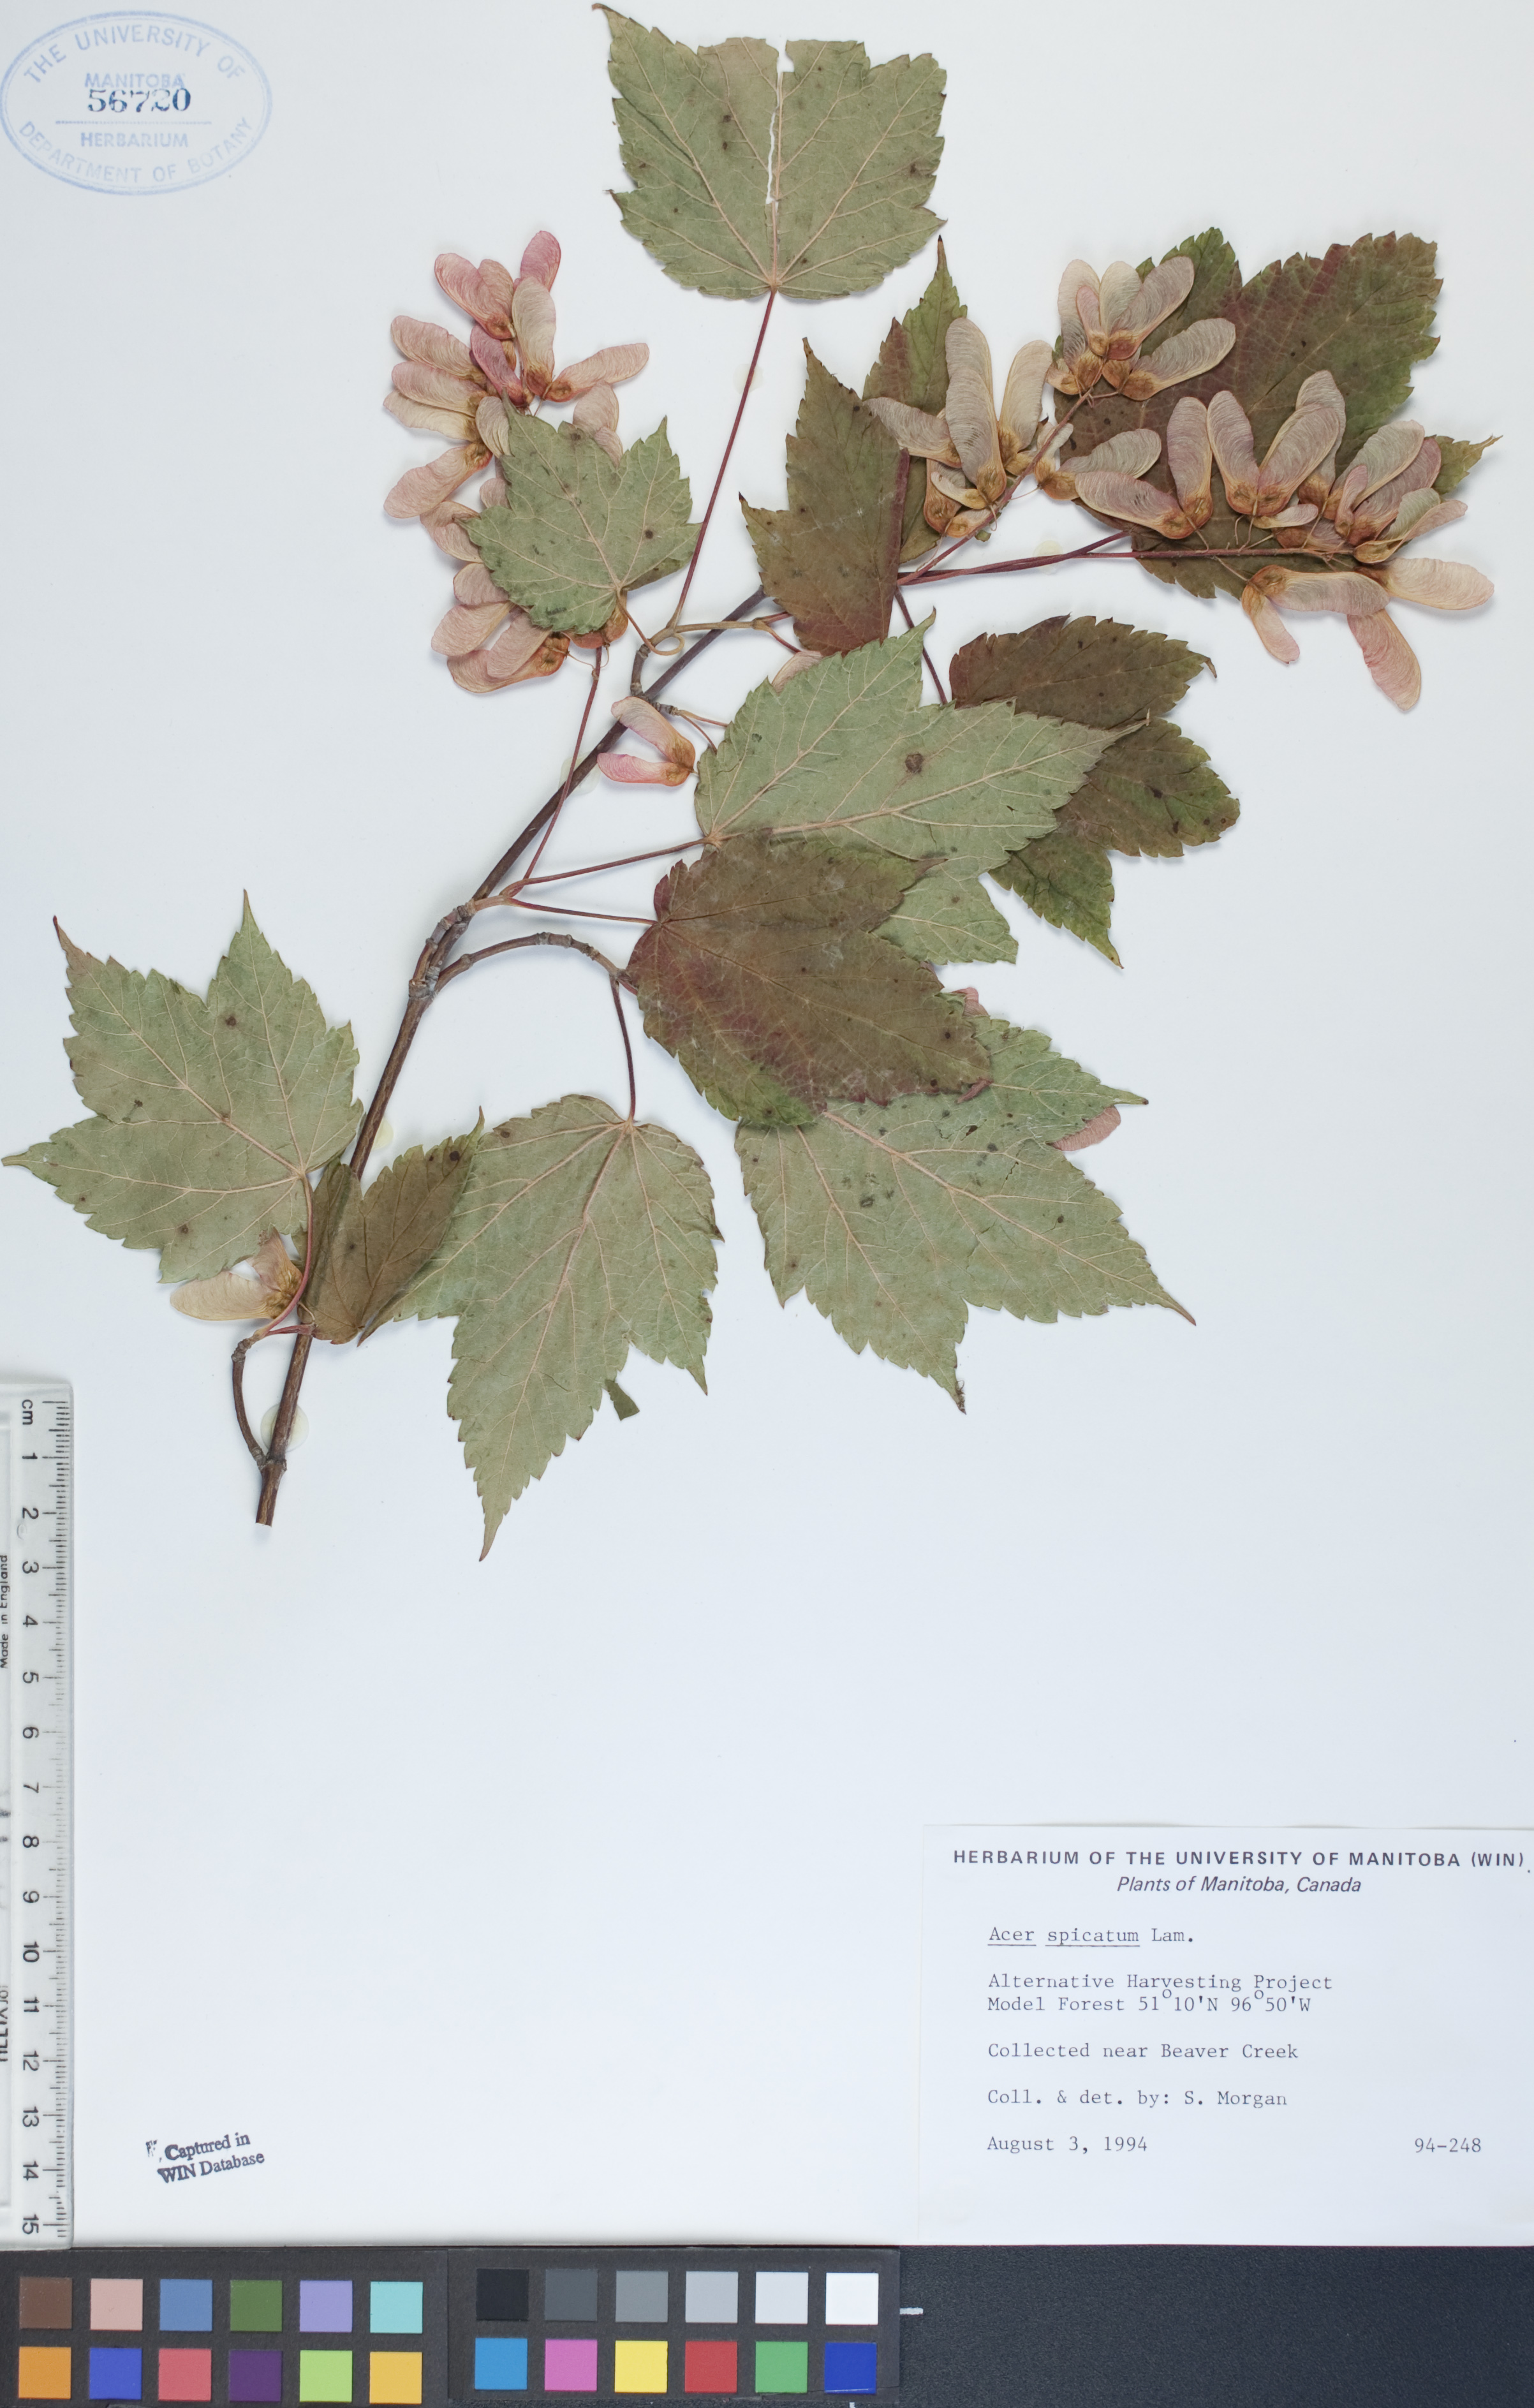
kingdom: Plantae
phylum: Tracheophyta
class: Magnoliopsida
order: Sapindales
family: Sapindaceae
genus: Acer
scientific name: Acer spicatum
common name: Mountain maple
